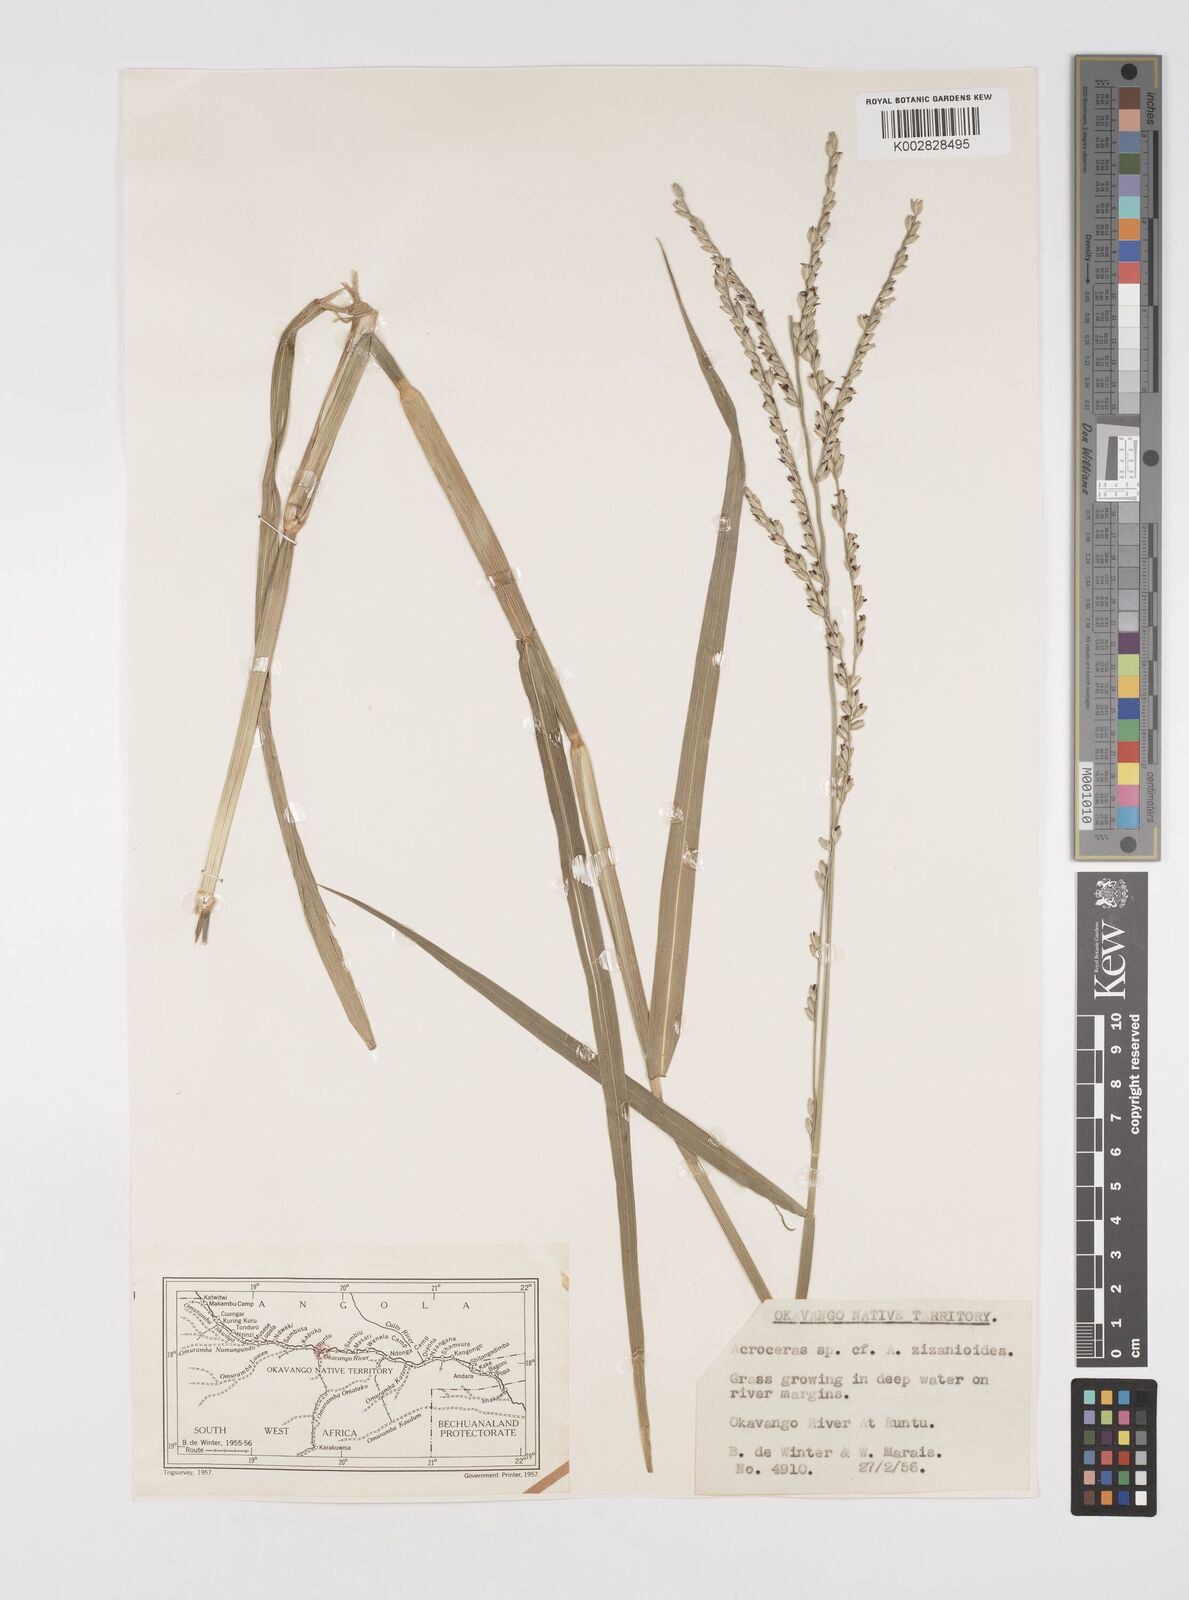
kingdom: Plantae
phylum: Tracheophyta
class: Liliopsida
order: Poales
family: Poaceae
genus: Acroceras
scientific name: Acroceras macrum
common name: Nyl grass
